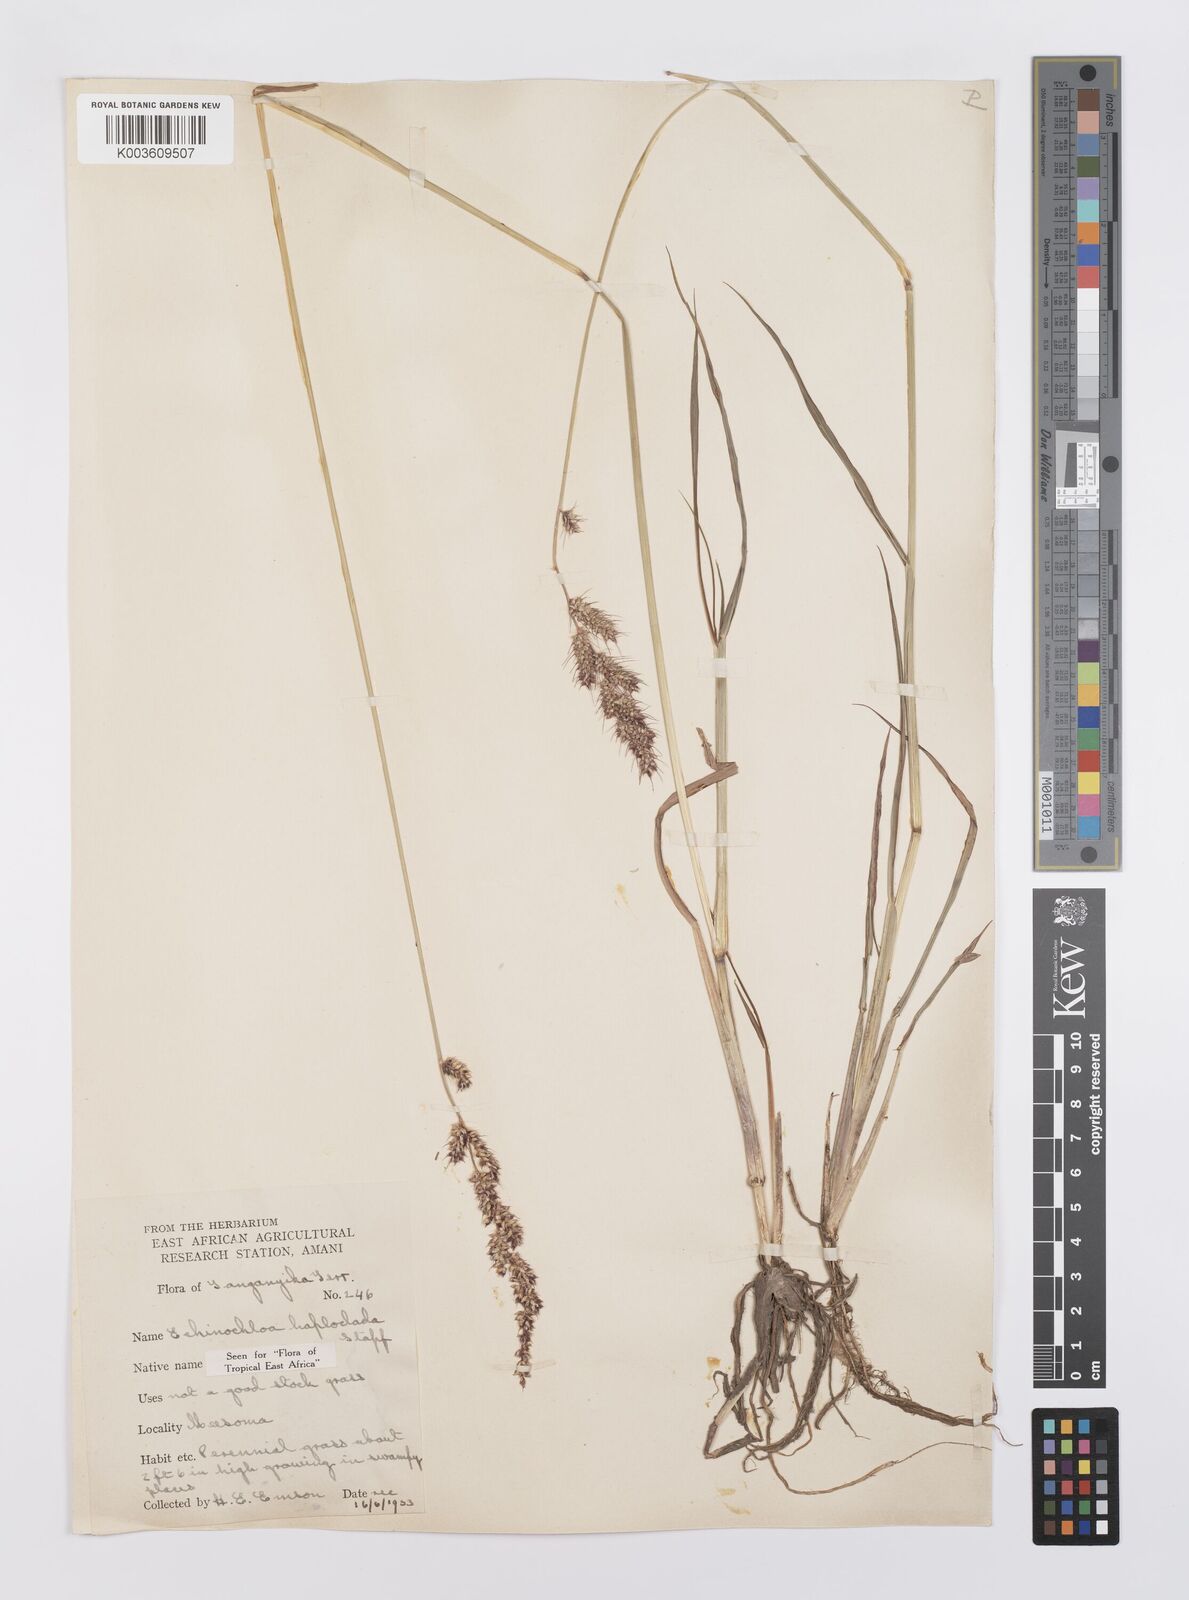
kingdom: Plantae
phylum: Tracheophyta
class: Liliopsida
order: Poales
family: Poaceae
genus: Echinochloa
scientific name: Echinochloa haploclada
